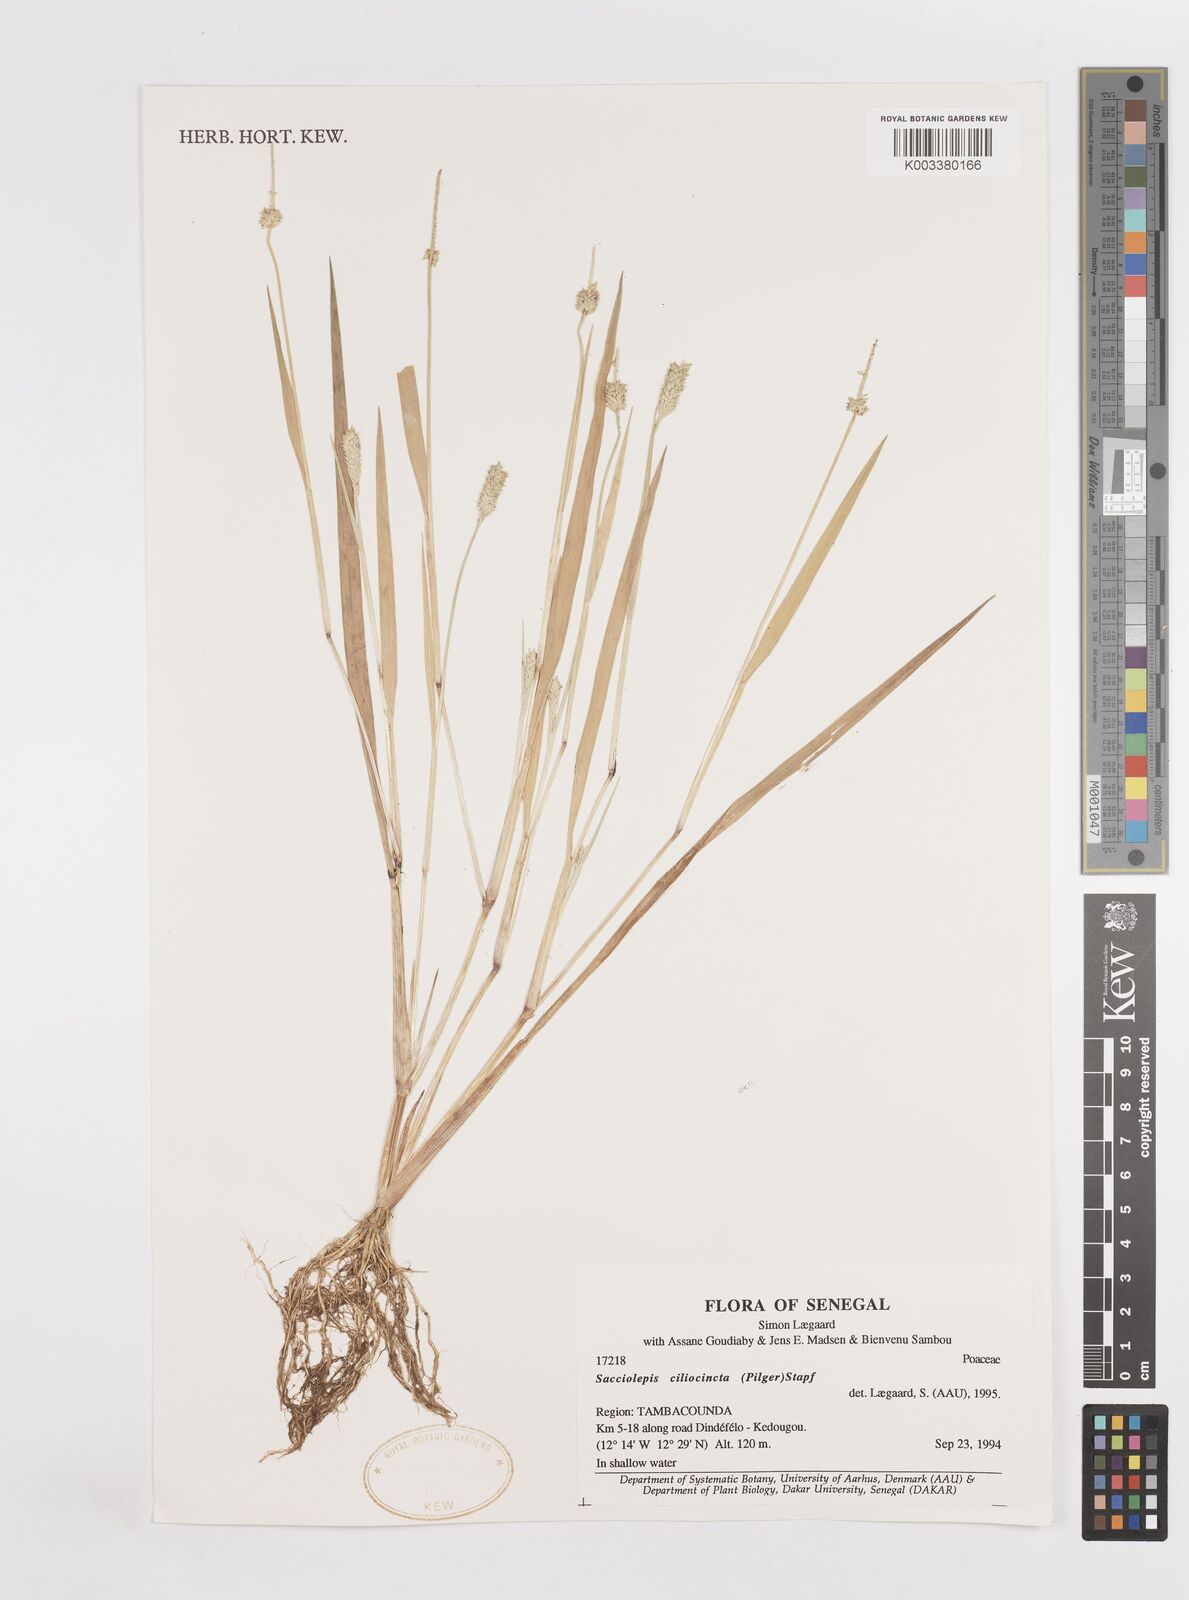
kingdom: Plantae
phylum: Tracheophyta
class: Liliopsida
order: Poales
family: Poaceae
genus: Sacciolepis
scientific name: Sacciolepis ciliocincta
